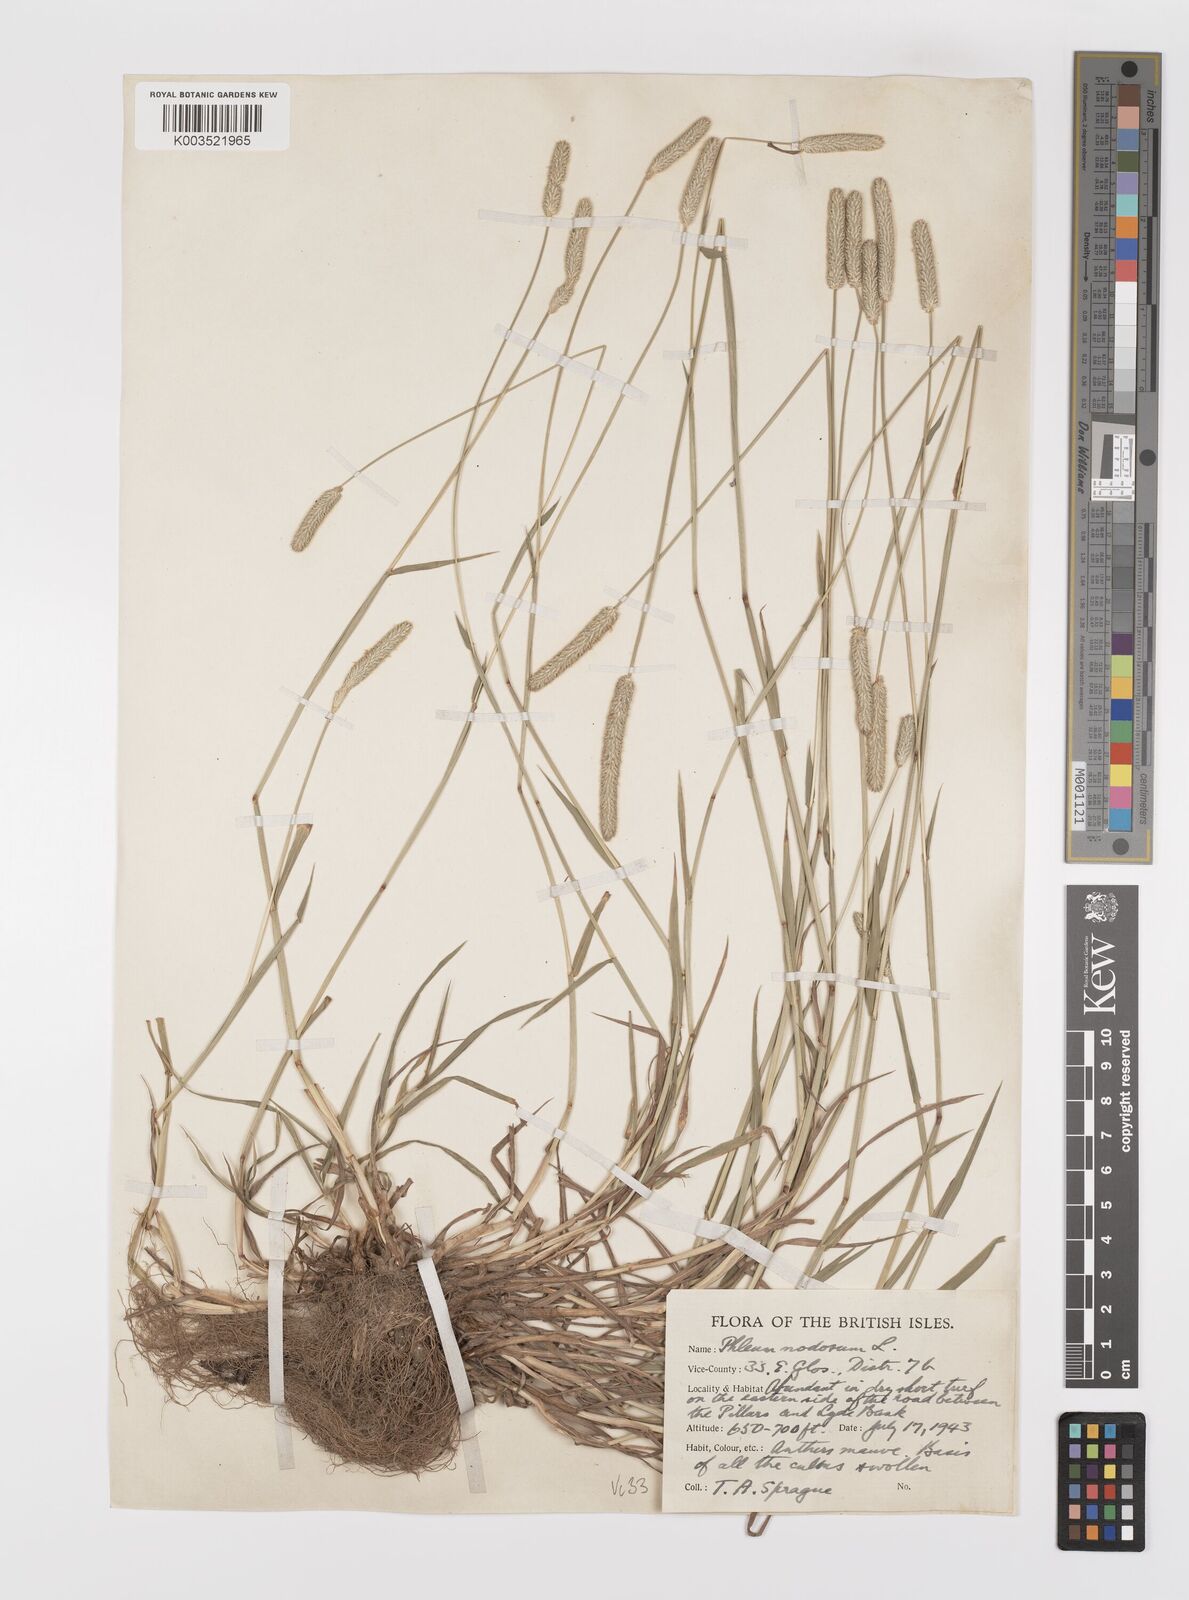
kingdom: Plantae
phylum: Tracheophyta
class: Liliopsida
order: Poales
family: Poaceae
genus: Phleum
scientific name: Phleum bertolonii
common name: Smaller cat's-tail
